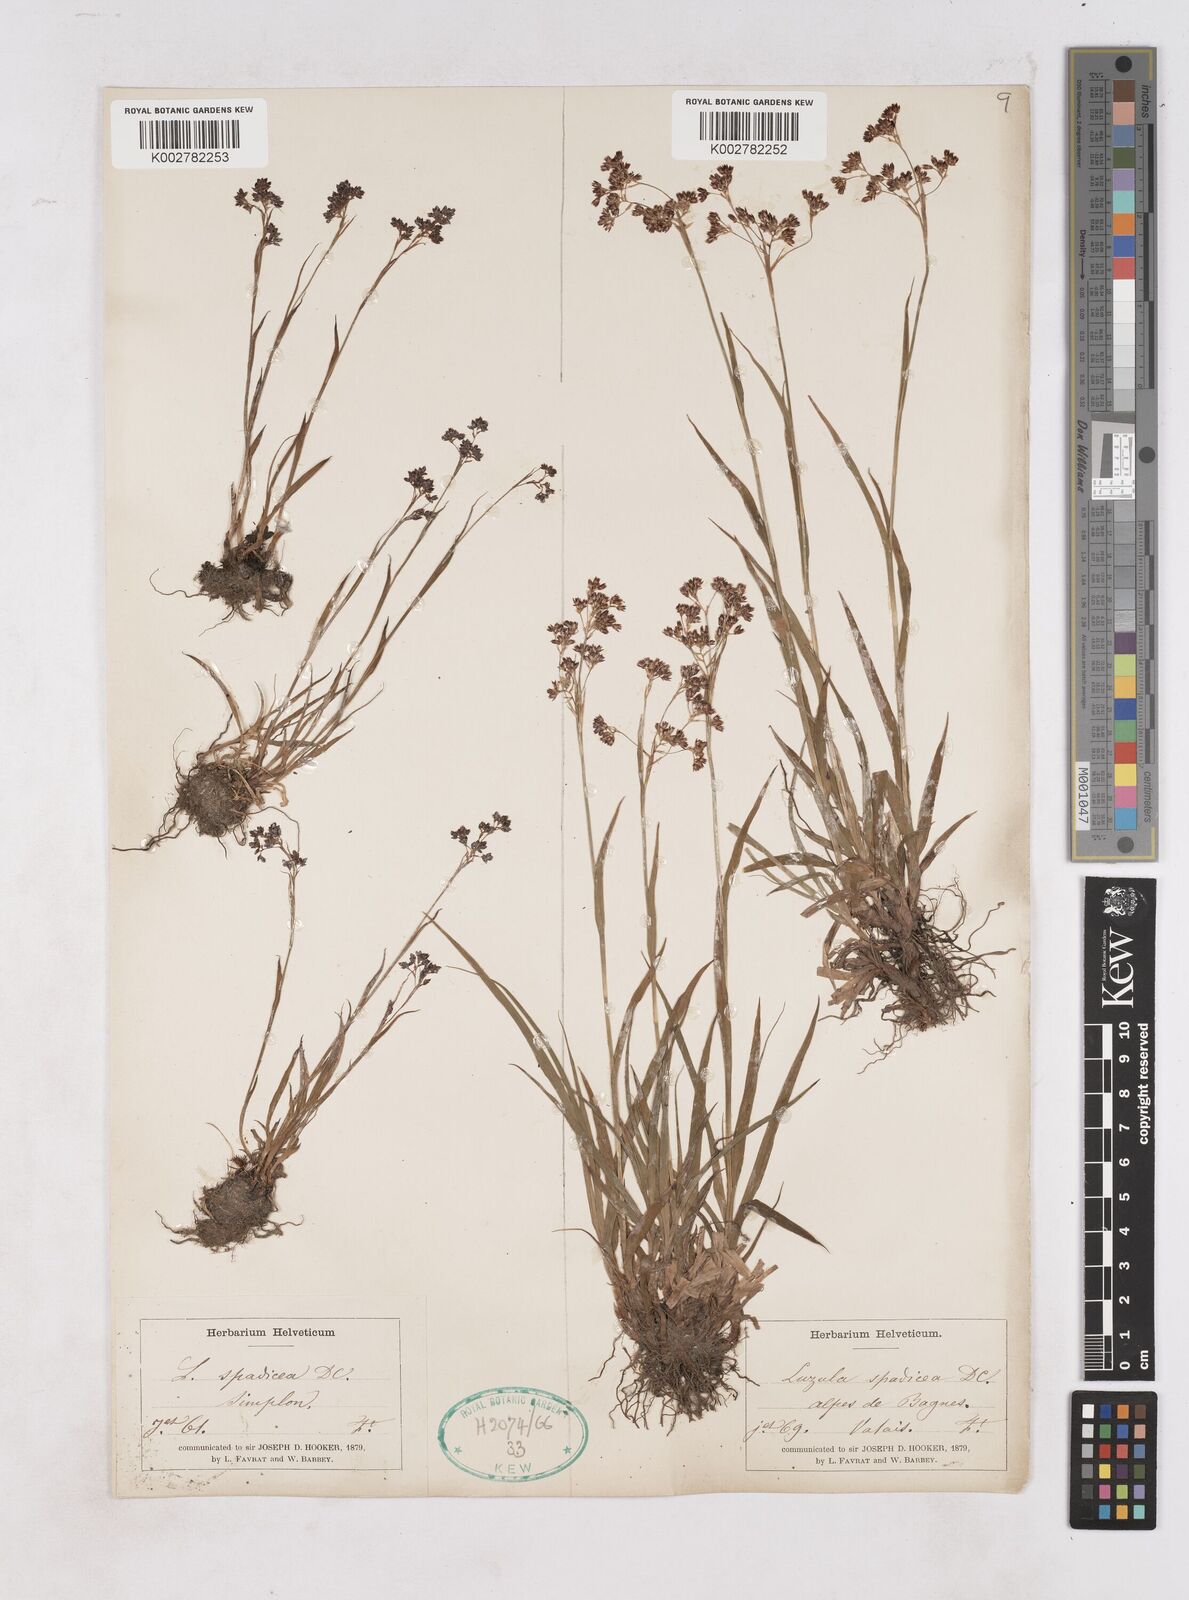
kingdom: Plantae
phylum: Tracheophyta
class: Liliopsida
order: Poales
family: Juncaceae
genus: Luzula
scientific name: Luzula alpinopilosa
